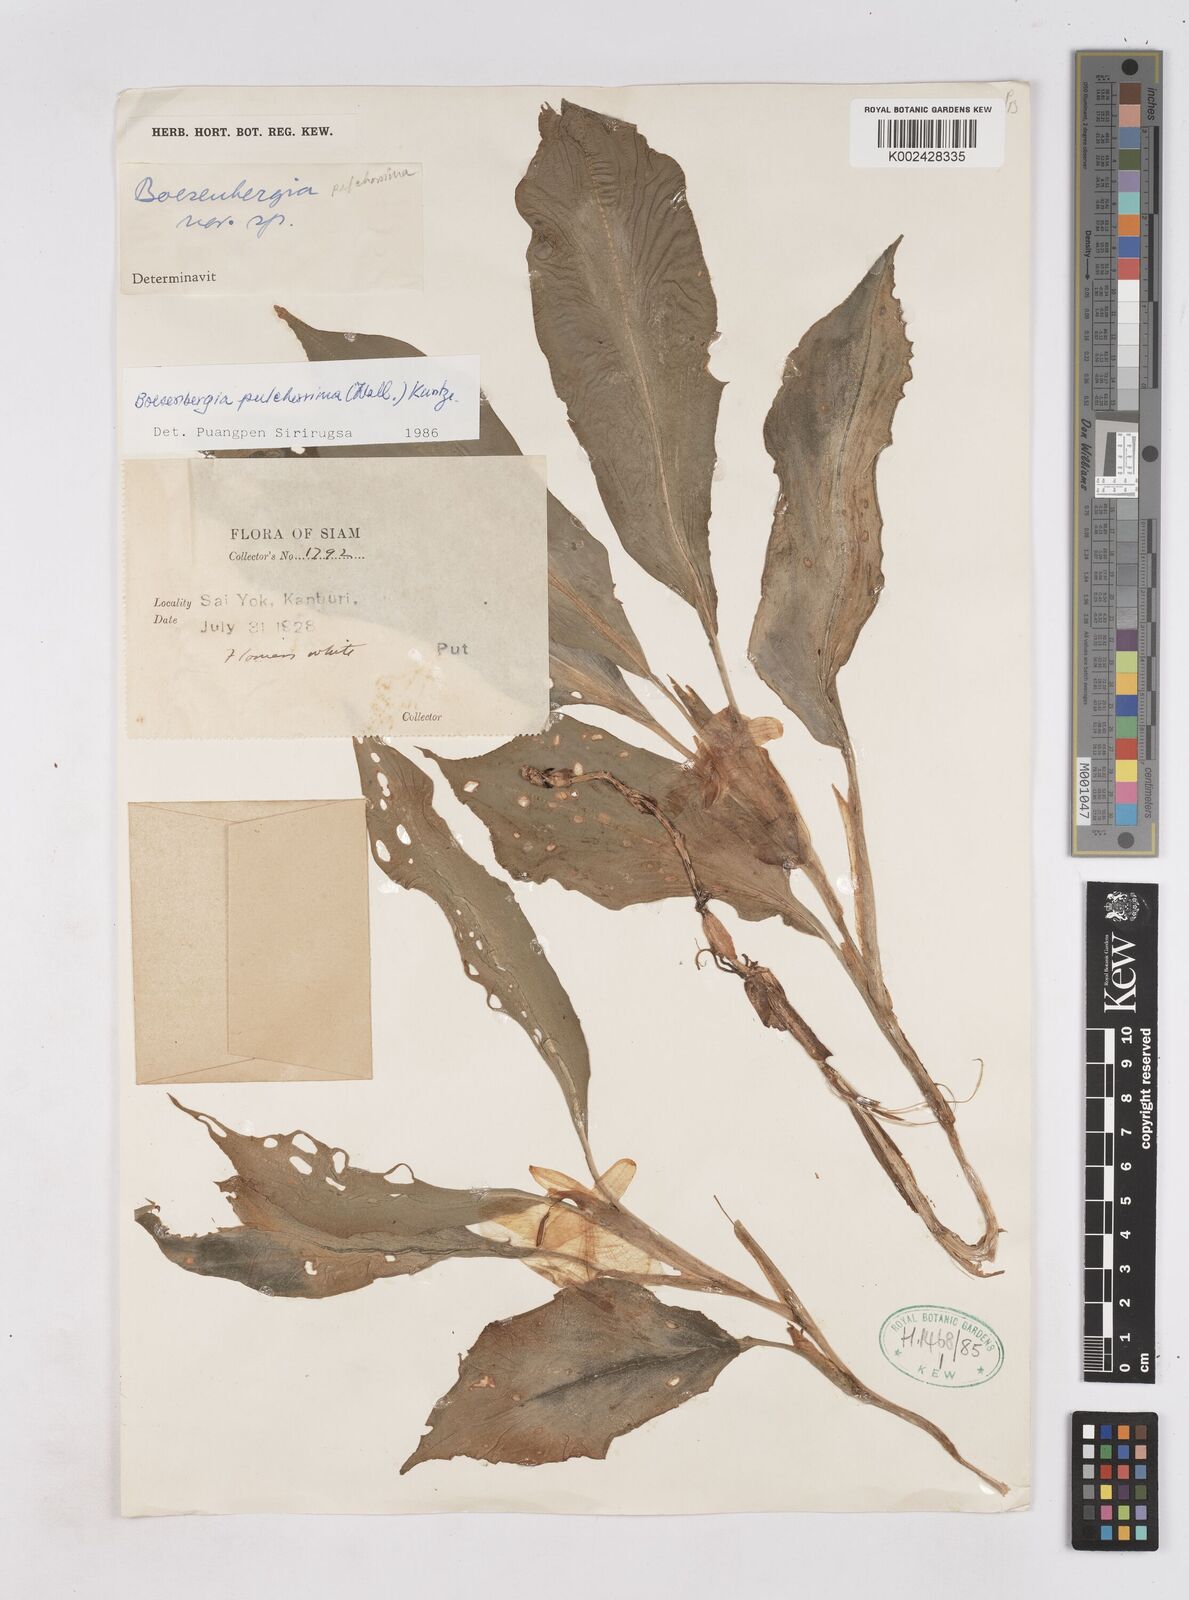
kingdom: Plantae
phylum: Tracheophyta
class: Liliopsida
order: Zingiberales
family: Zingiberaceae
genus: Boesenbergia
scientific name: Boesenbergia pulcherrima
